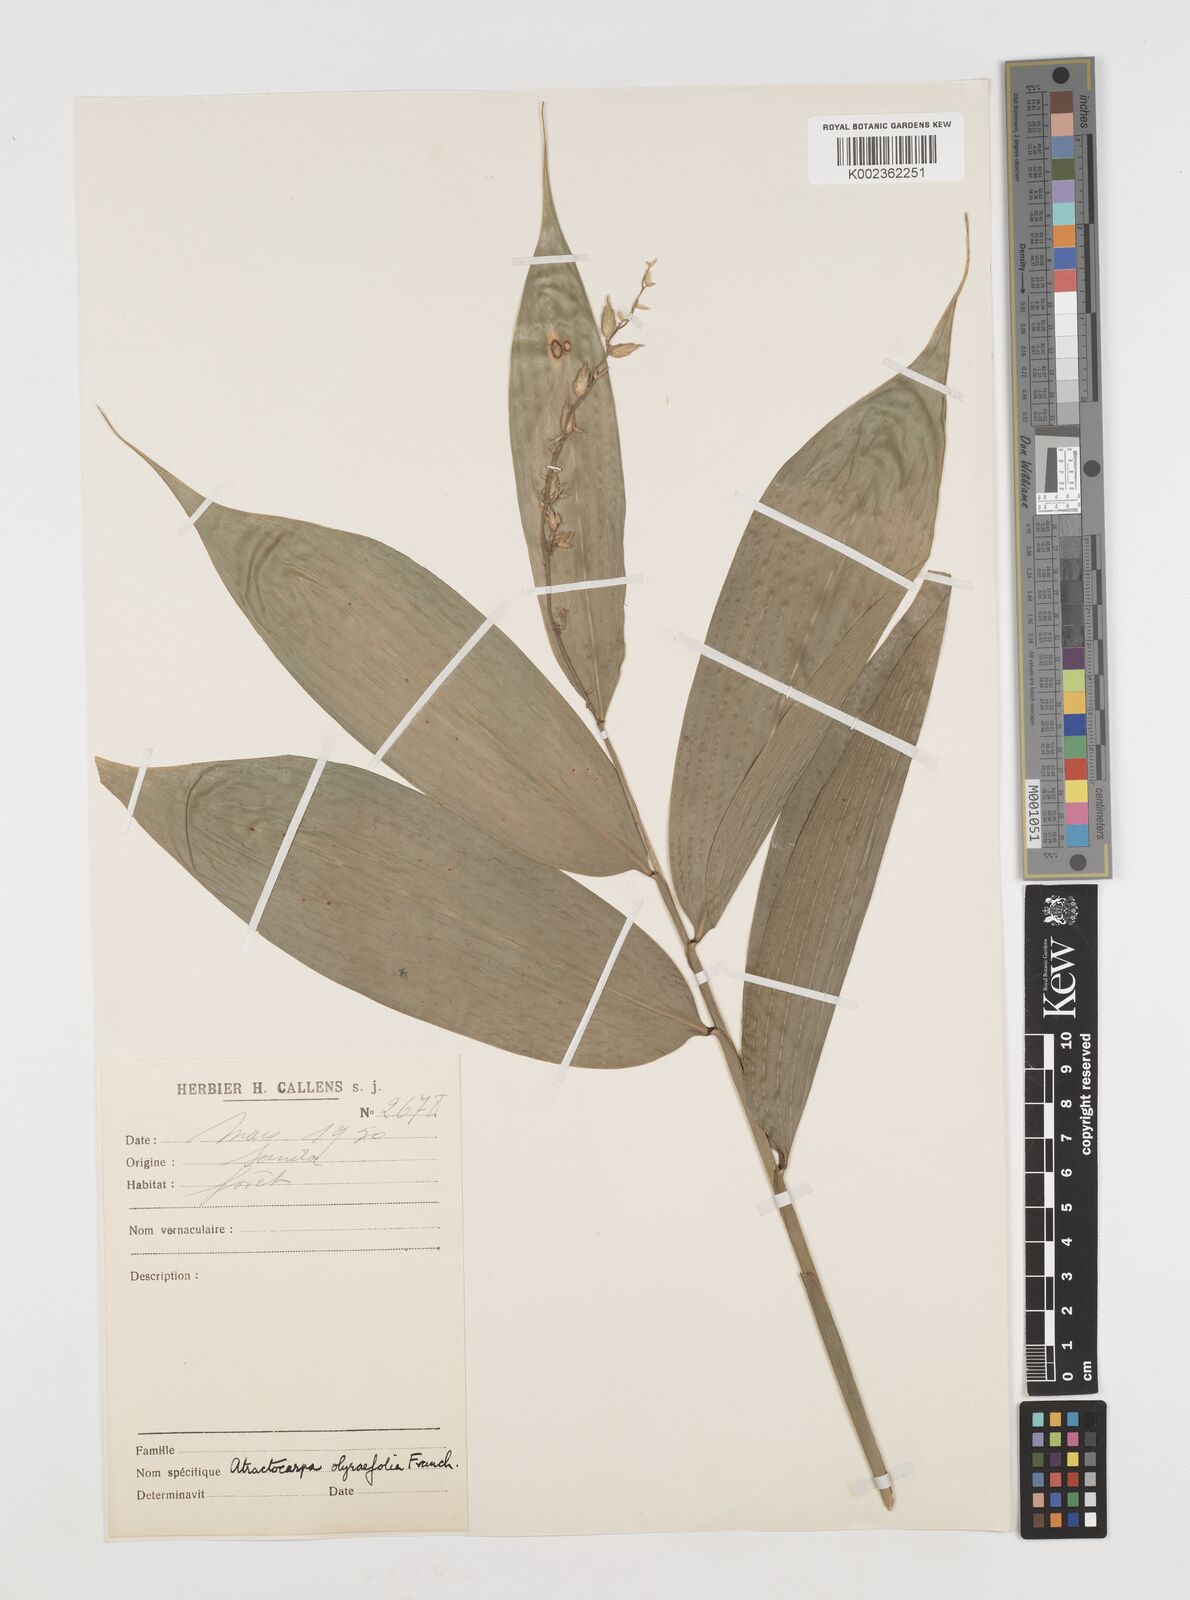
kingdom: Plantae
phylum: Tracheophyta
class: Liliopsida
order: Poales
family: Poaceae
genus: Puelia
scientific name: Puelia olyriformis
